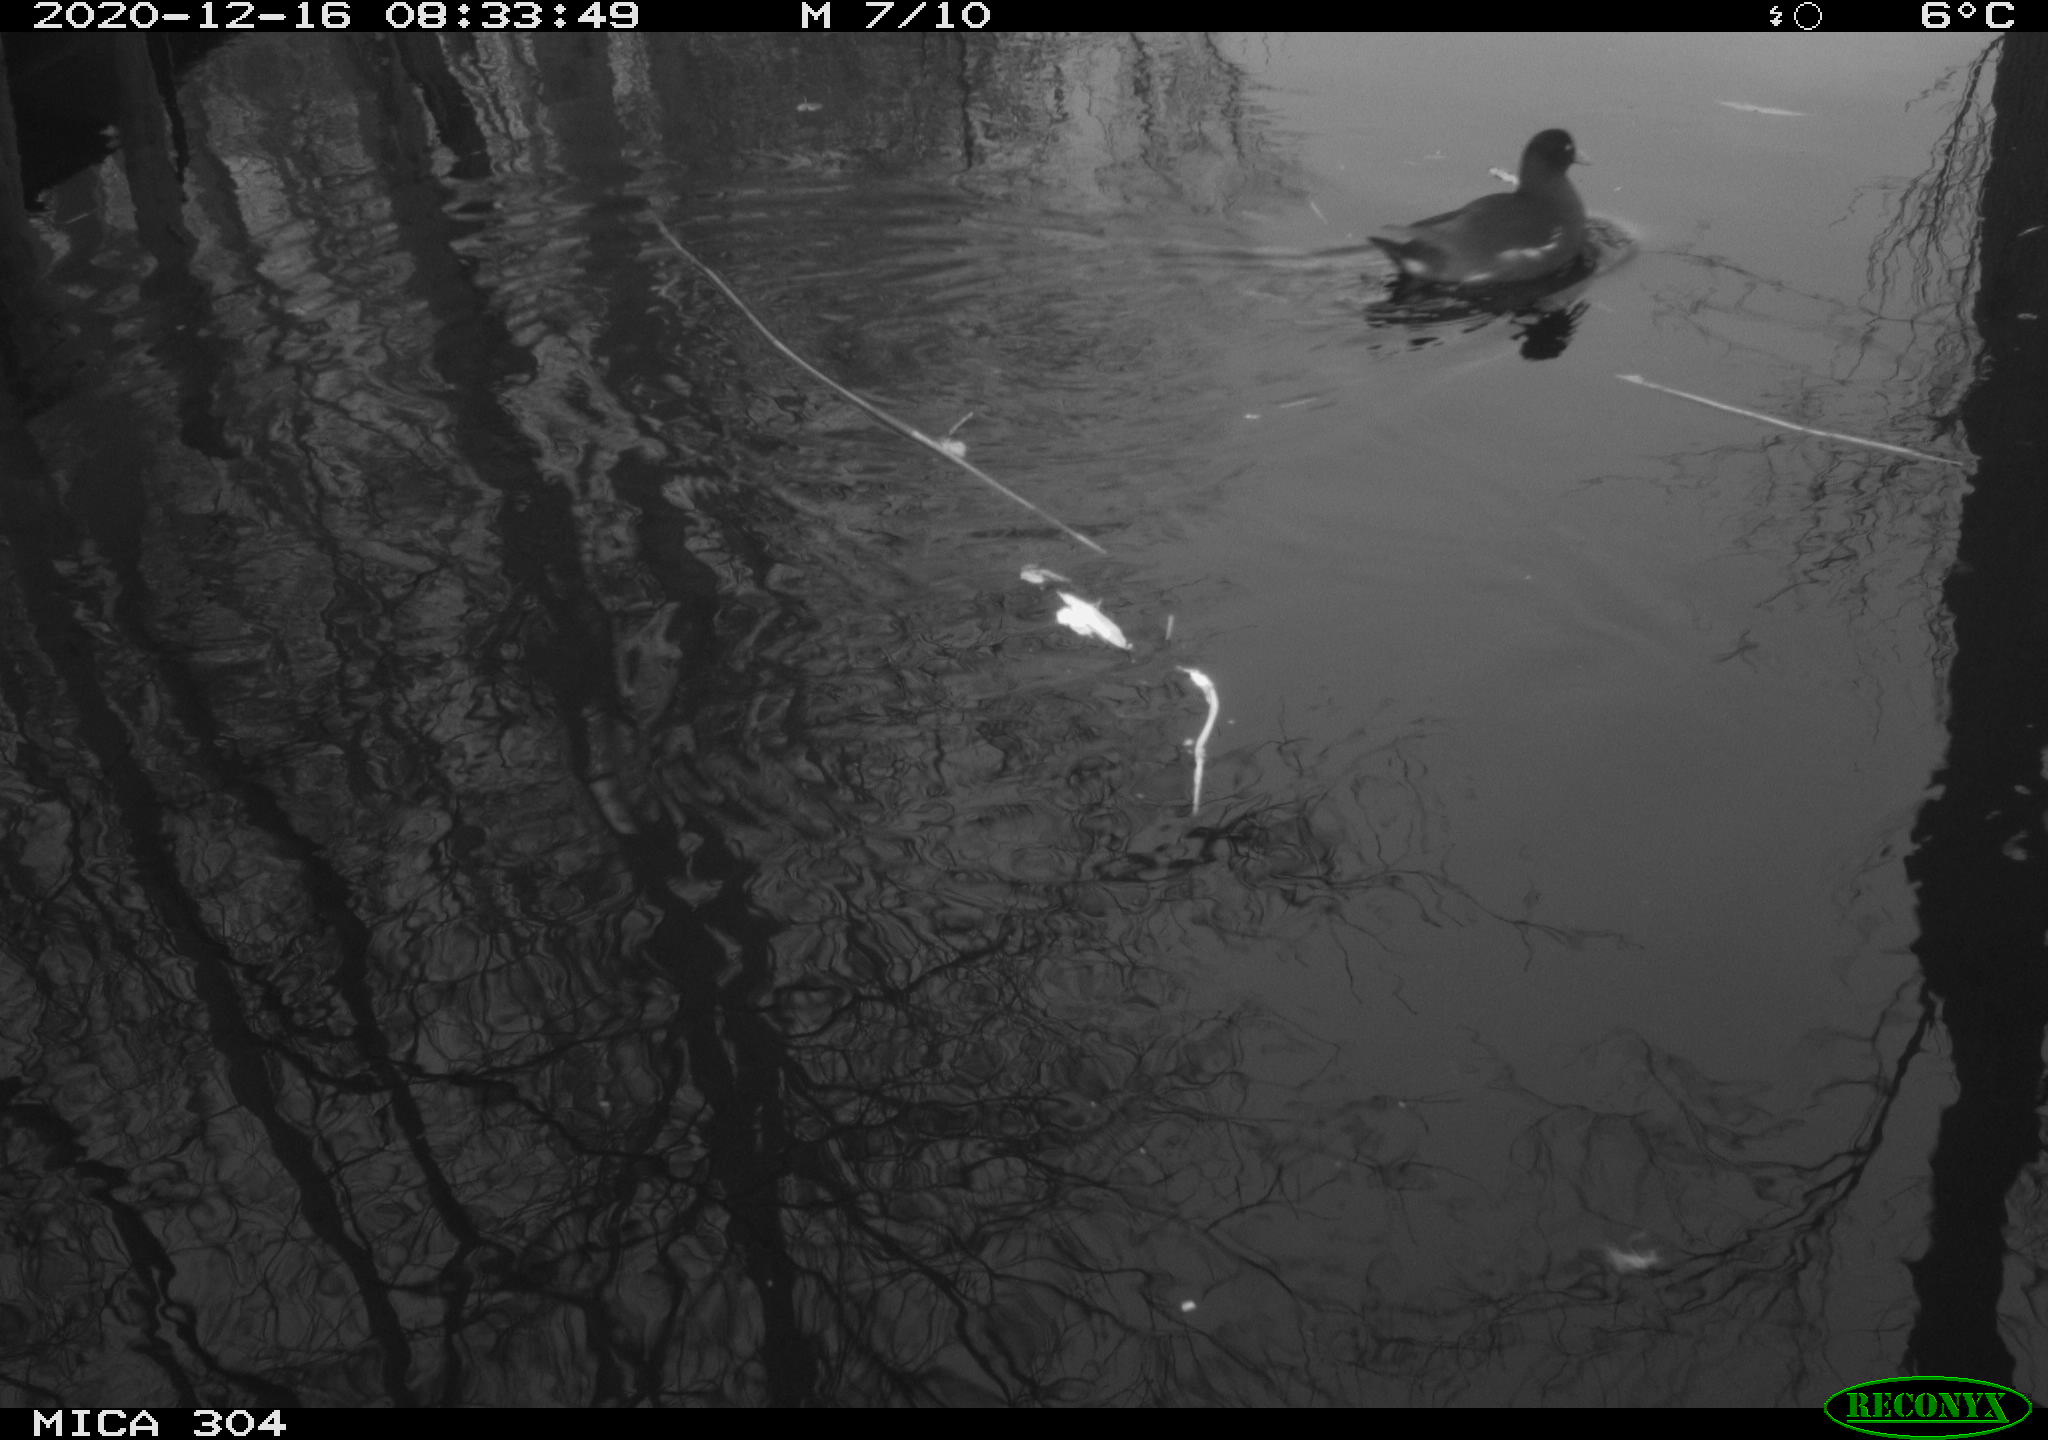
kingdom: Animalia
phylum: Chordata
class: Aves
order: Gruiformes
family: Rallidae
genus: Gallinula
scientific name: Gallinula chloropus
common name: Common moorhen
